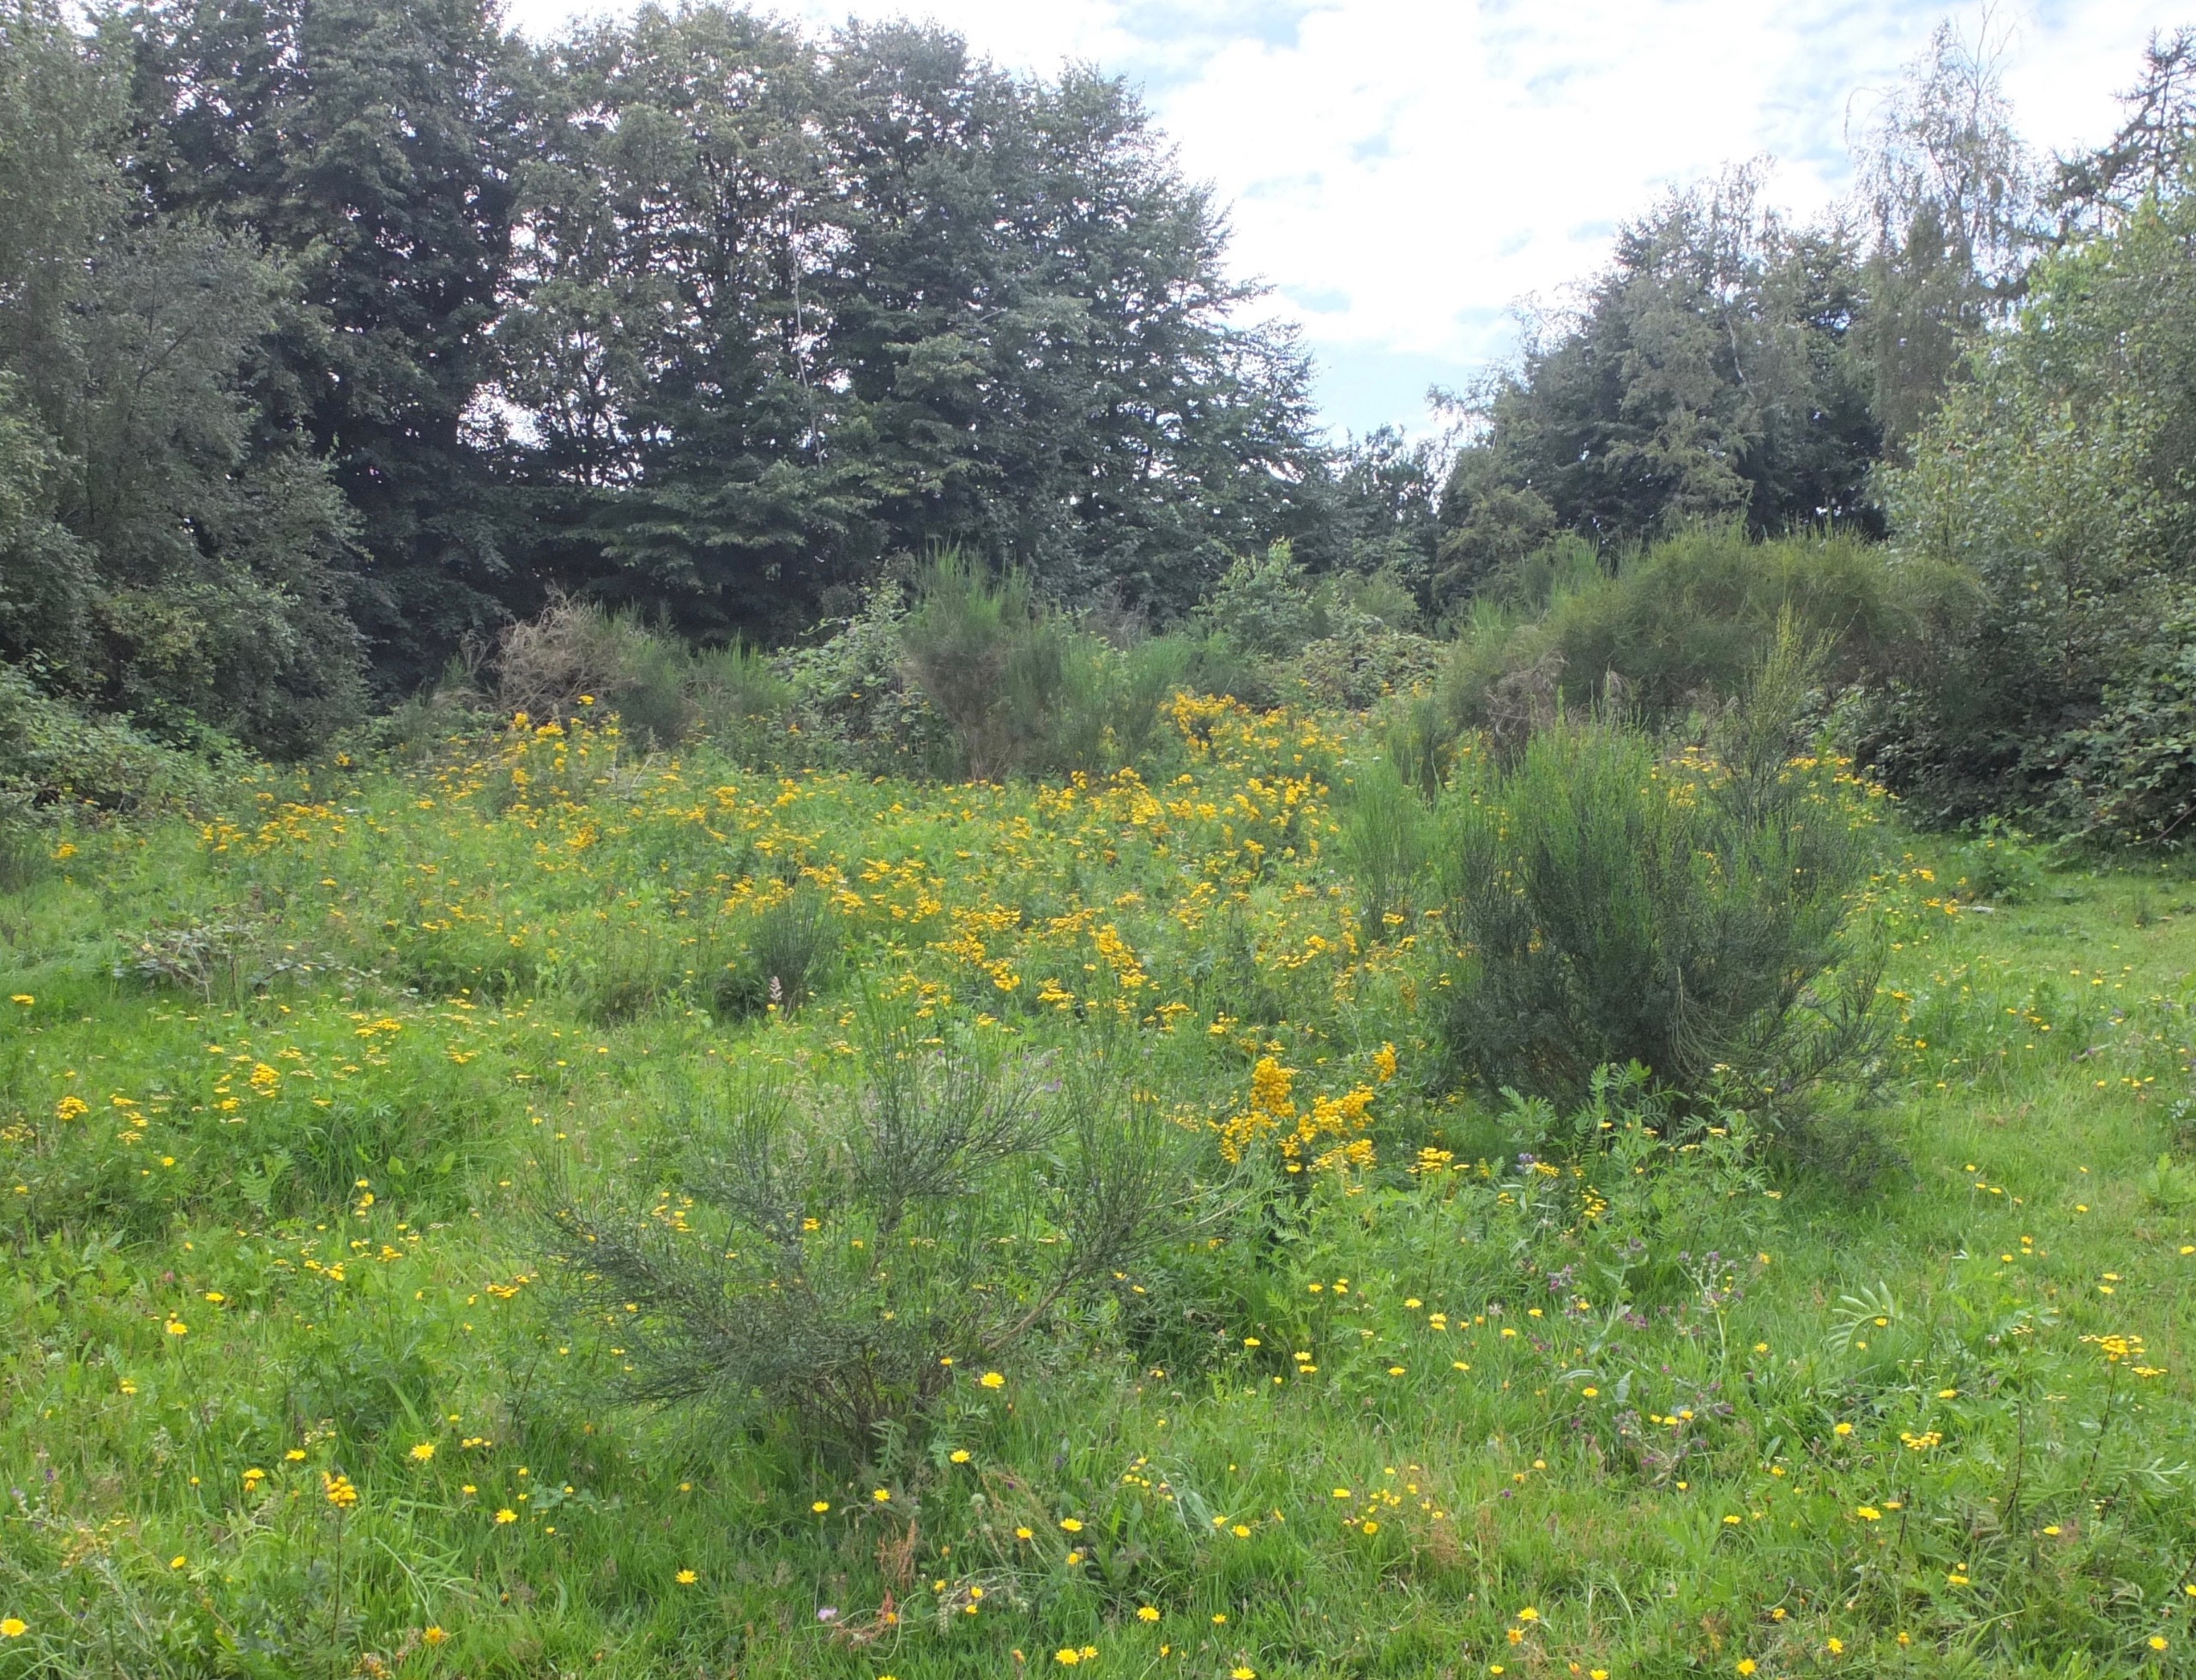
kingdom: Plantae
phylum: Tracheophyta
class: Magnoliopsida
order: Asterales
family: Asteraceae
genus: Tanacetum
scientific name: Tanacetum vulgare
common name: Rejnfan
